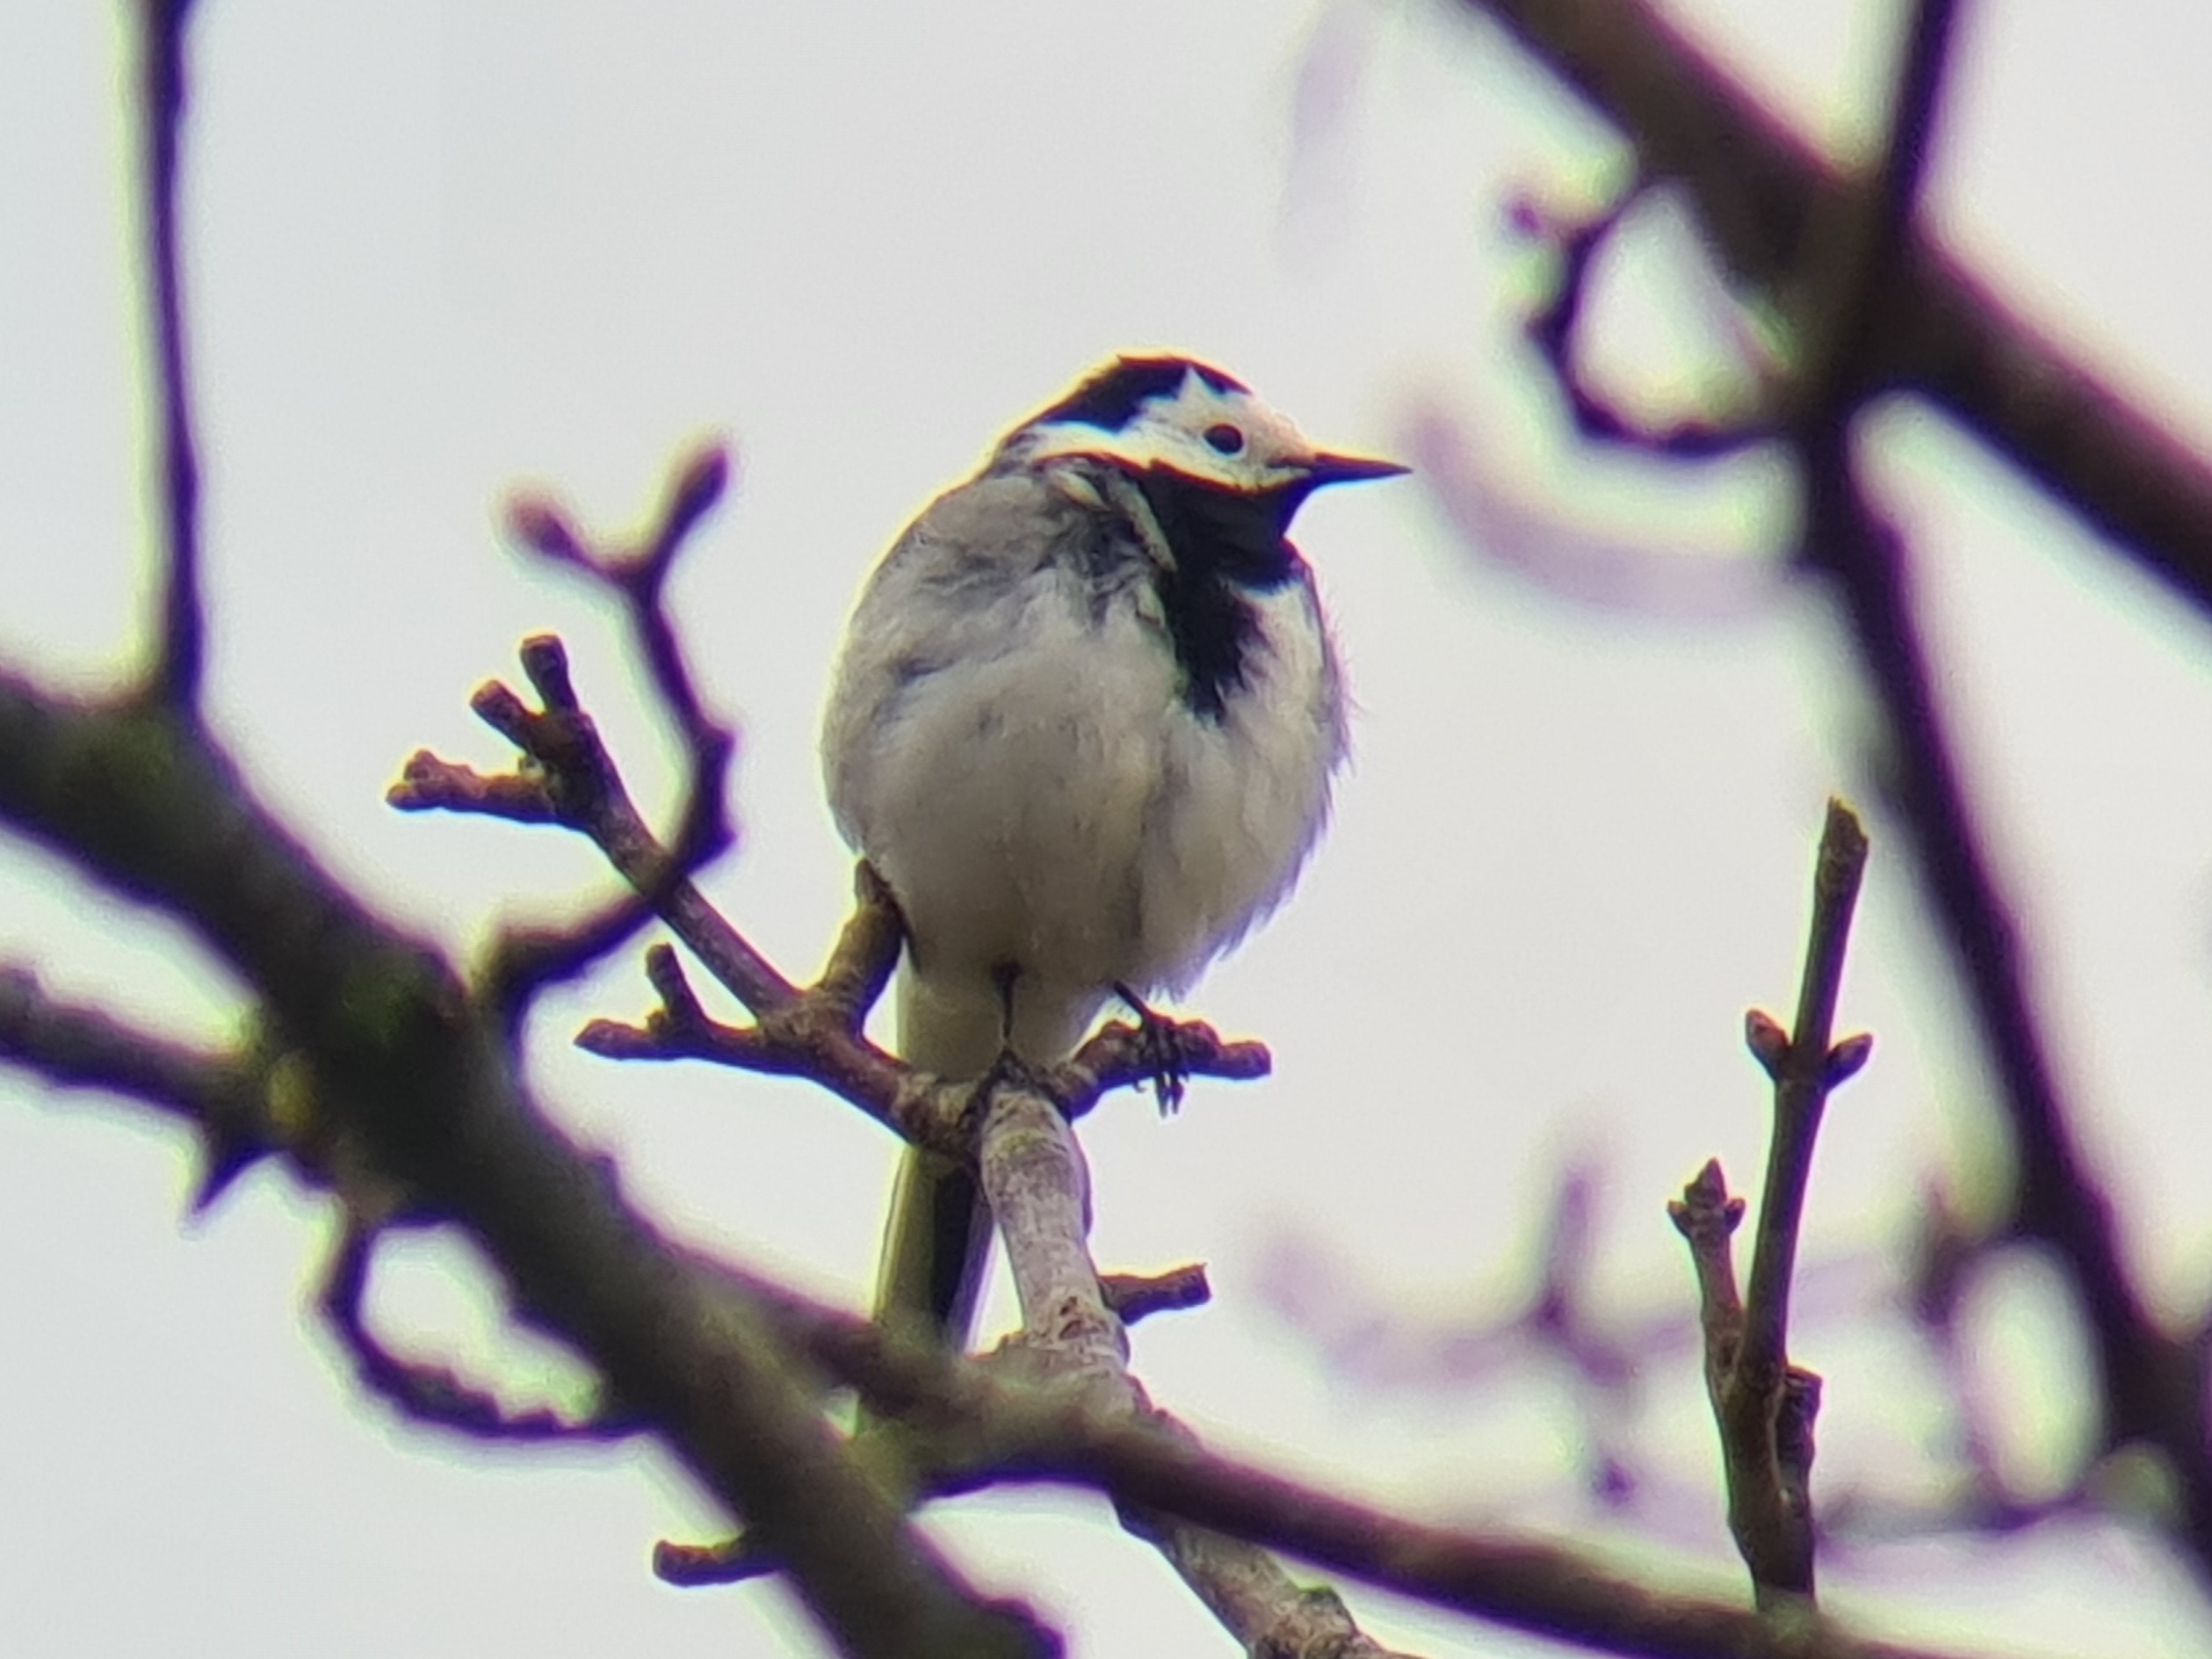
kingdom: Animalia
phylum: Chordata
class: Aves
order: Passeriformes
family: Motacillidae
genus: Motacilla
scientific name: Motacilla alba
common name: Hvid vipstjert
